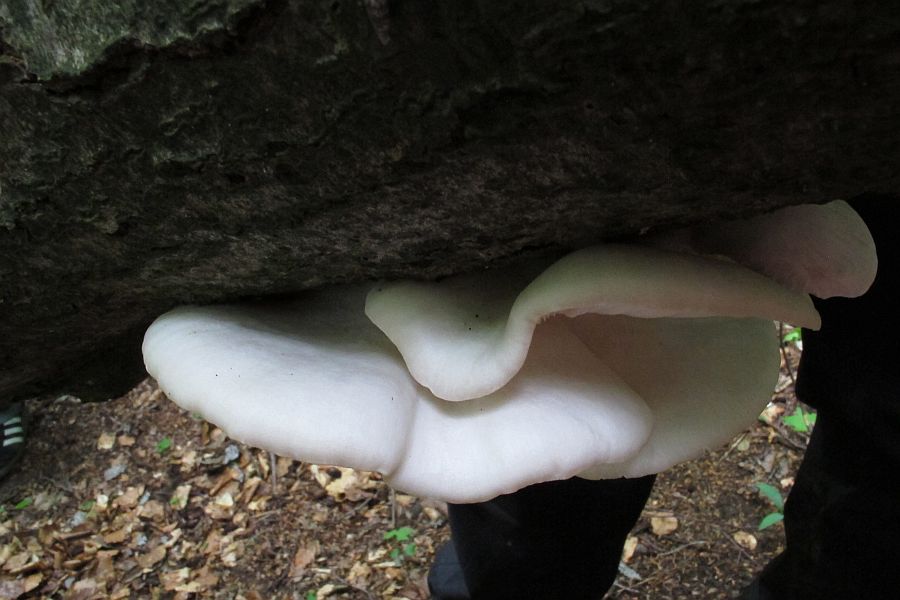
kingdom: Fungi
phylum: Basidiomycota
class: Agaricomycetes
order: Agaricales
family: Pleurotaceae
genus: Pleurotus
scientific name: Pleurotus pulmonarius
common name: sommer-østershat
